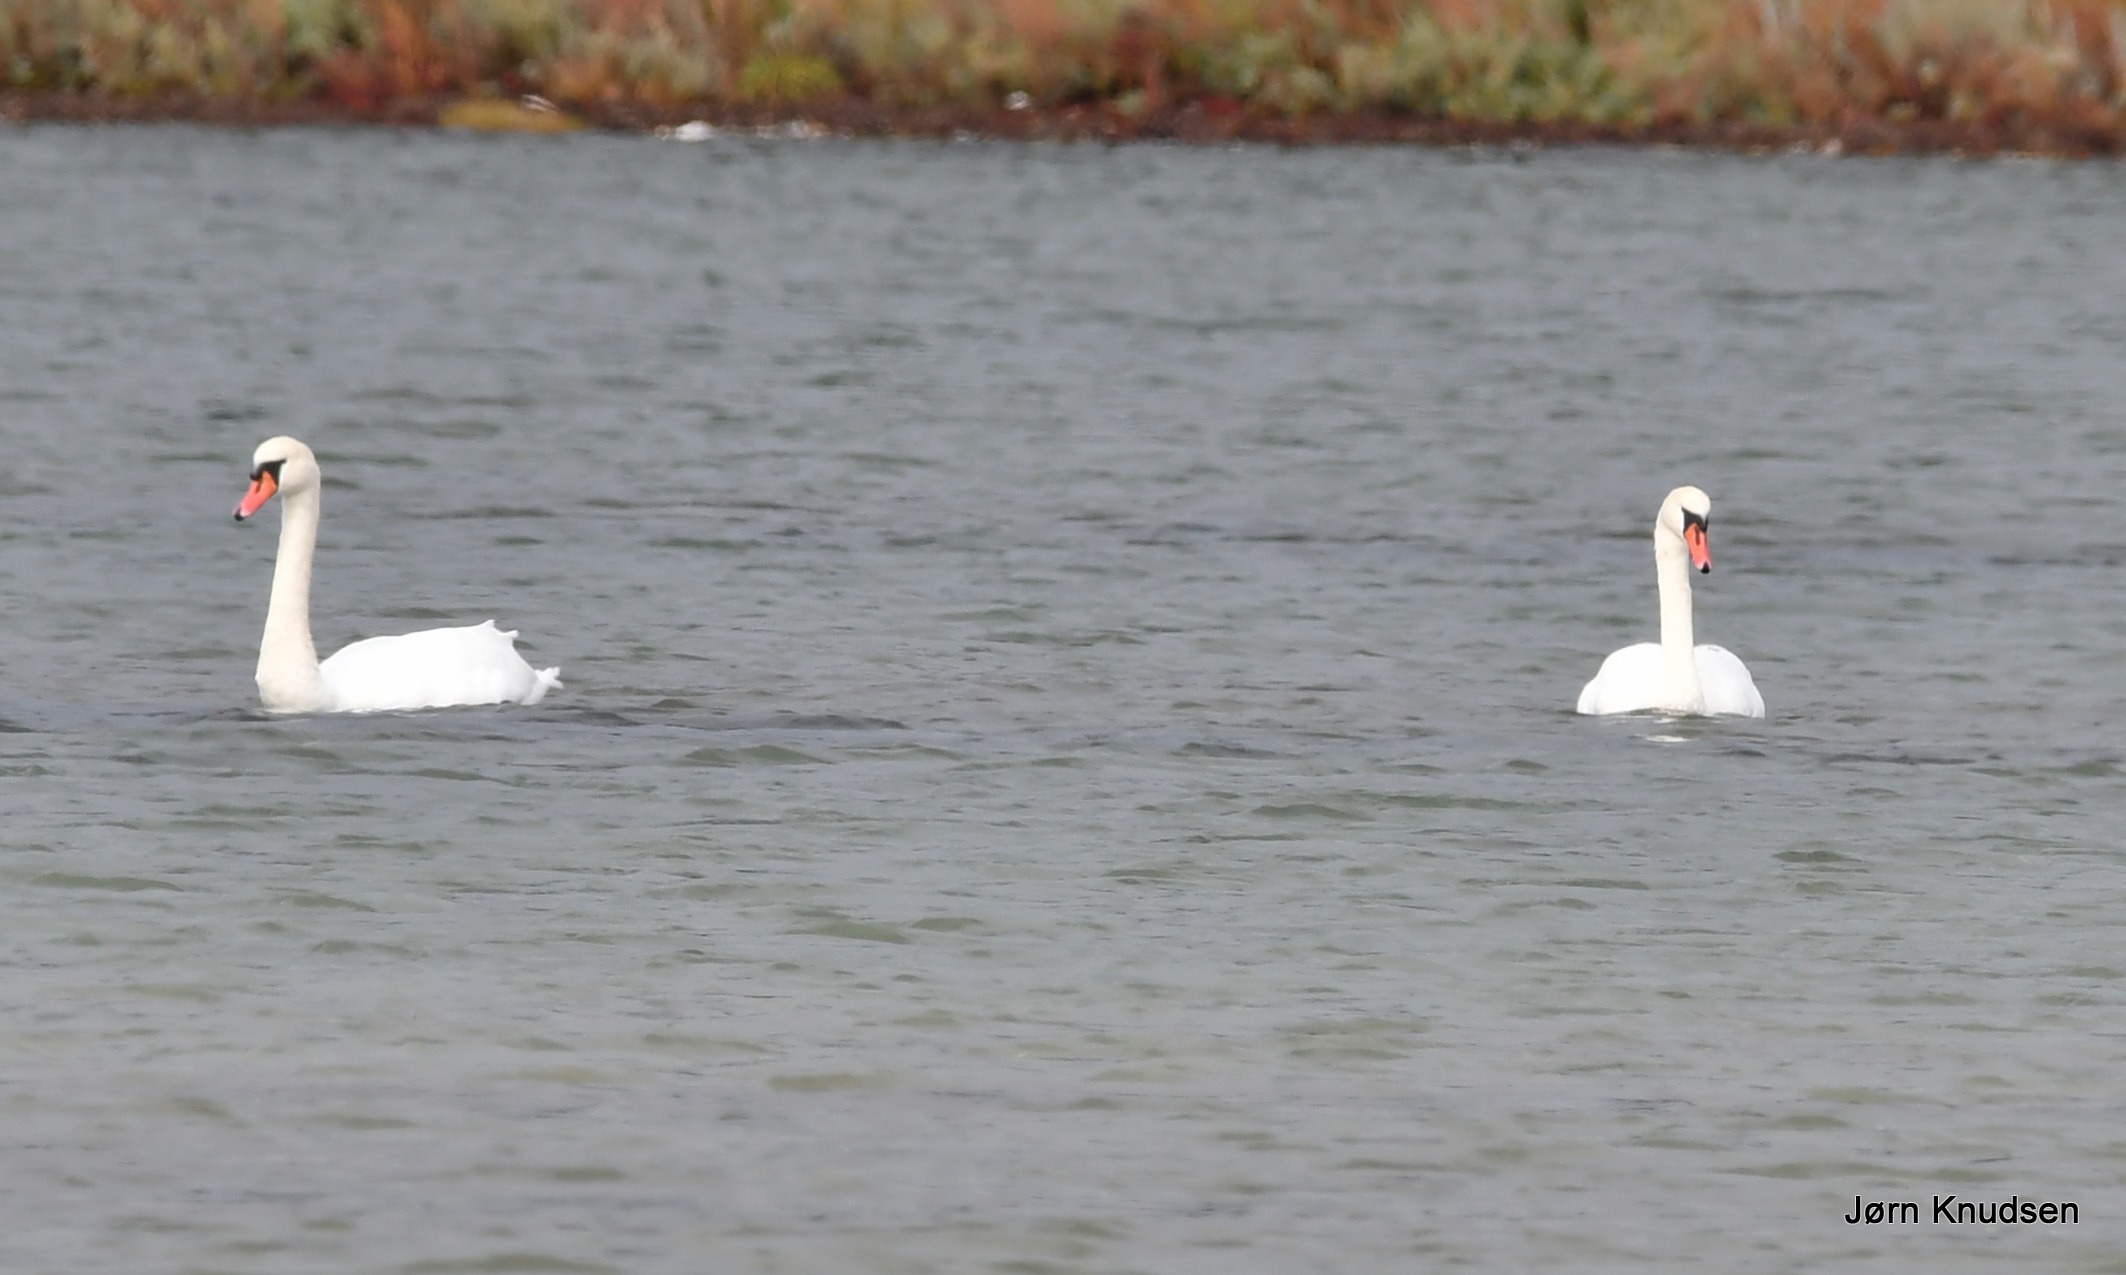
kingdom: Animalia
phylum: Chordata
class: Aves
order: Anseriformes
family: Anatidae
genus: Cygnus
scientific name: Cygnus olor
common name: Knopsvane
